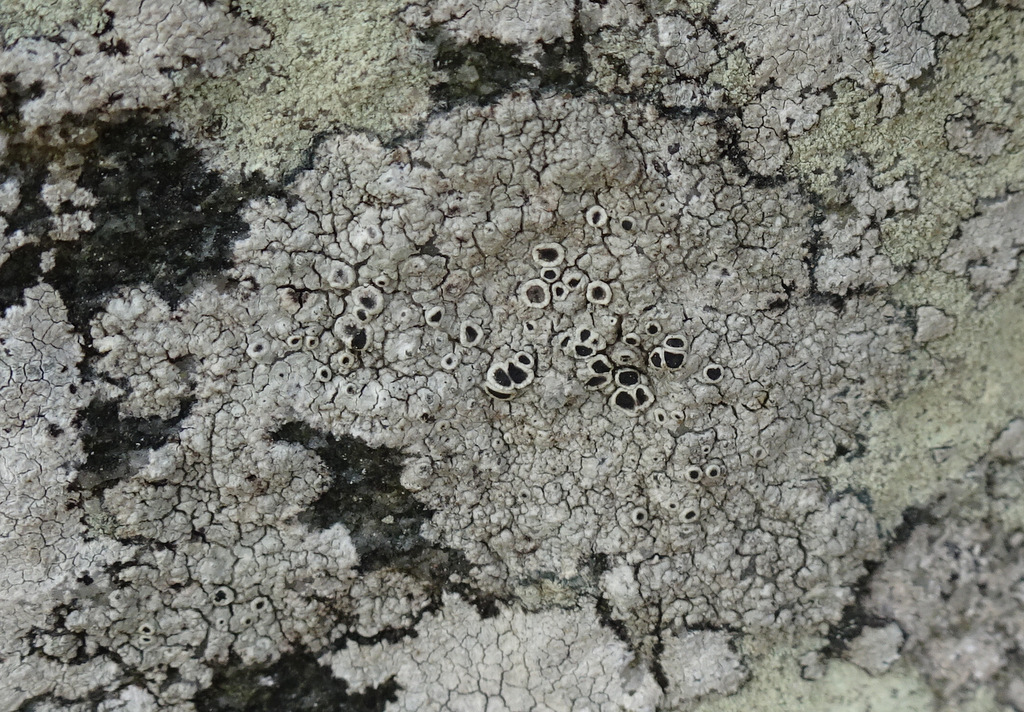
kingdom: Fungi
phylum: Ascomycota
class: Lecanoromycetes
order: Lecanorales
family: Tephromelataceae
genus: Tephromela
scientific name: Tephromela atra
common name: sortfrugtet kantskivelav
